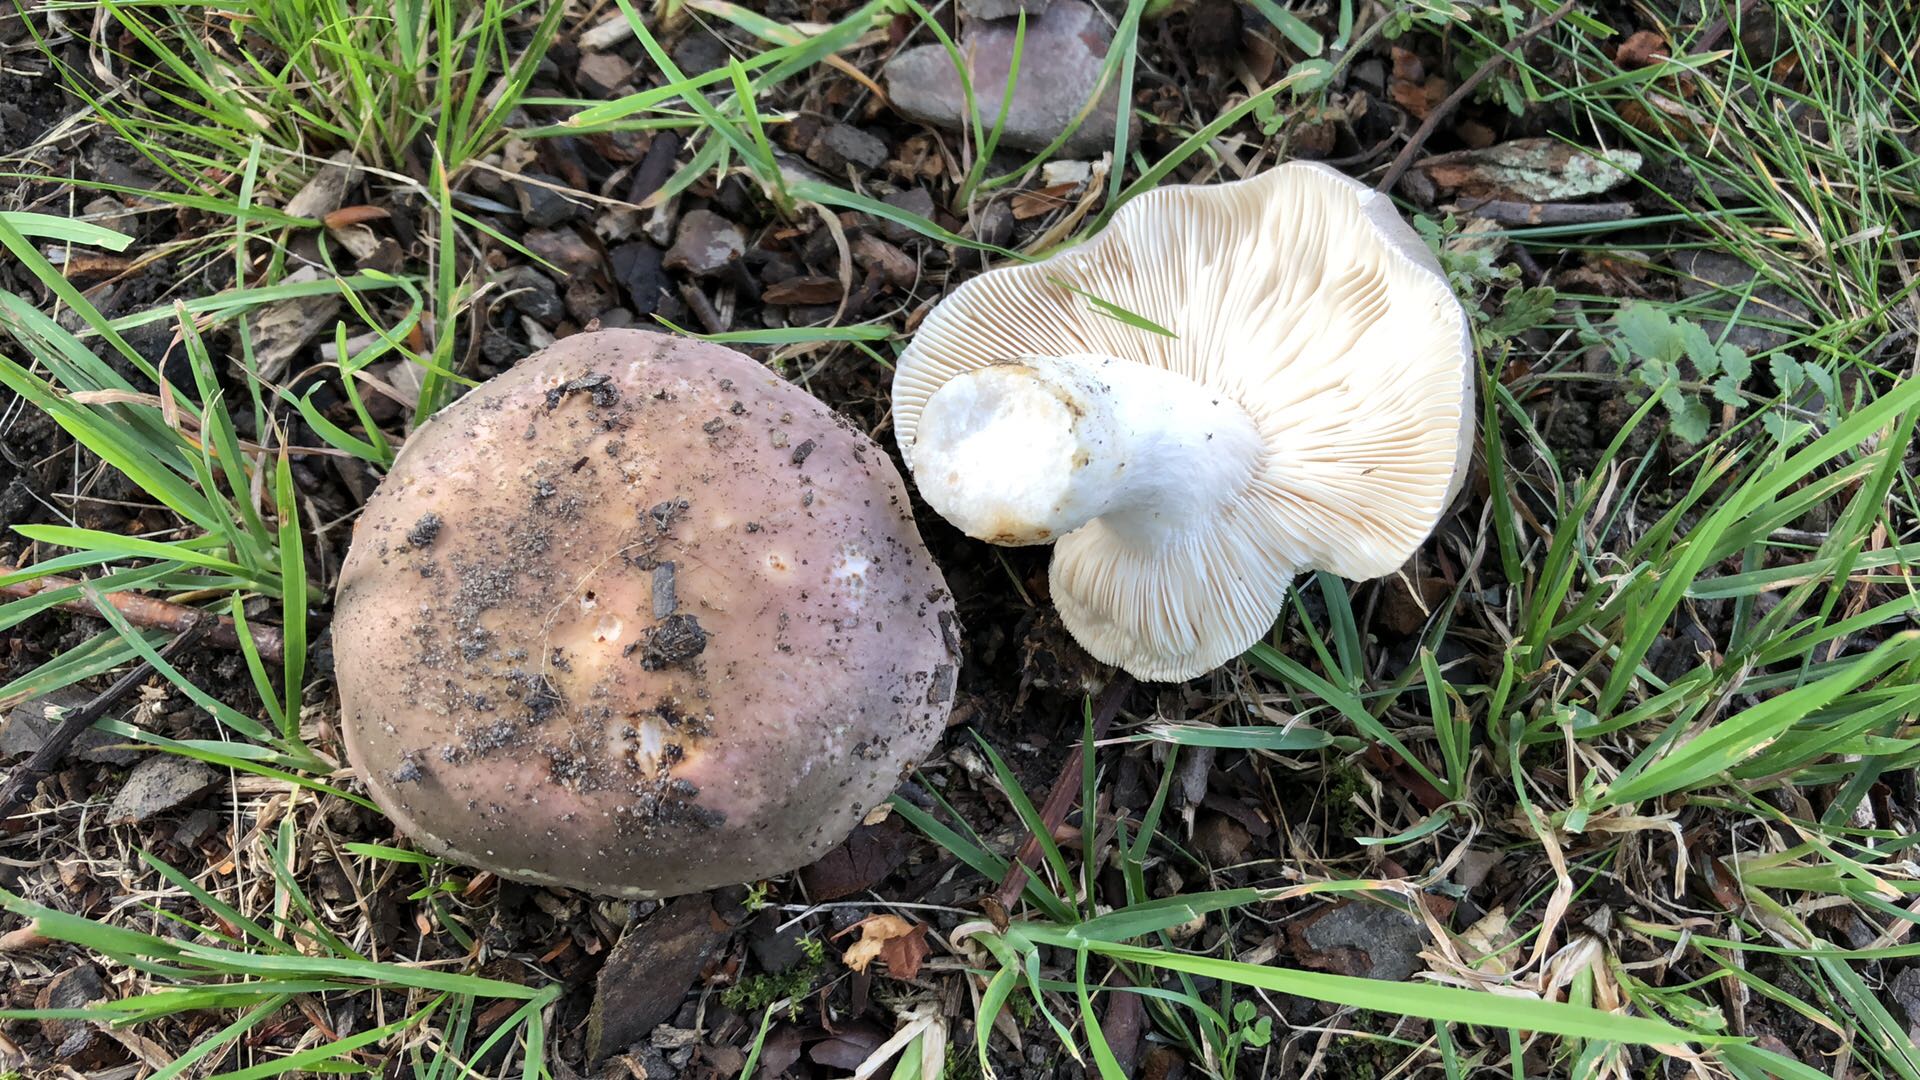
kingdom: Fungi
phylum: Basidiomycota
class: Agaricomycetes
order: Russulales
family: Russulaceae
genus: Russula
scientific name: Russula cyanoxantha
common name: broget skørhat
